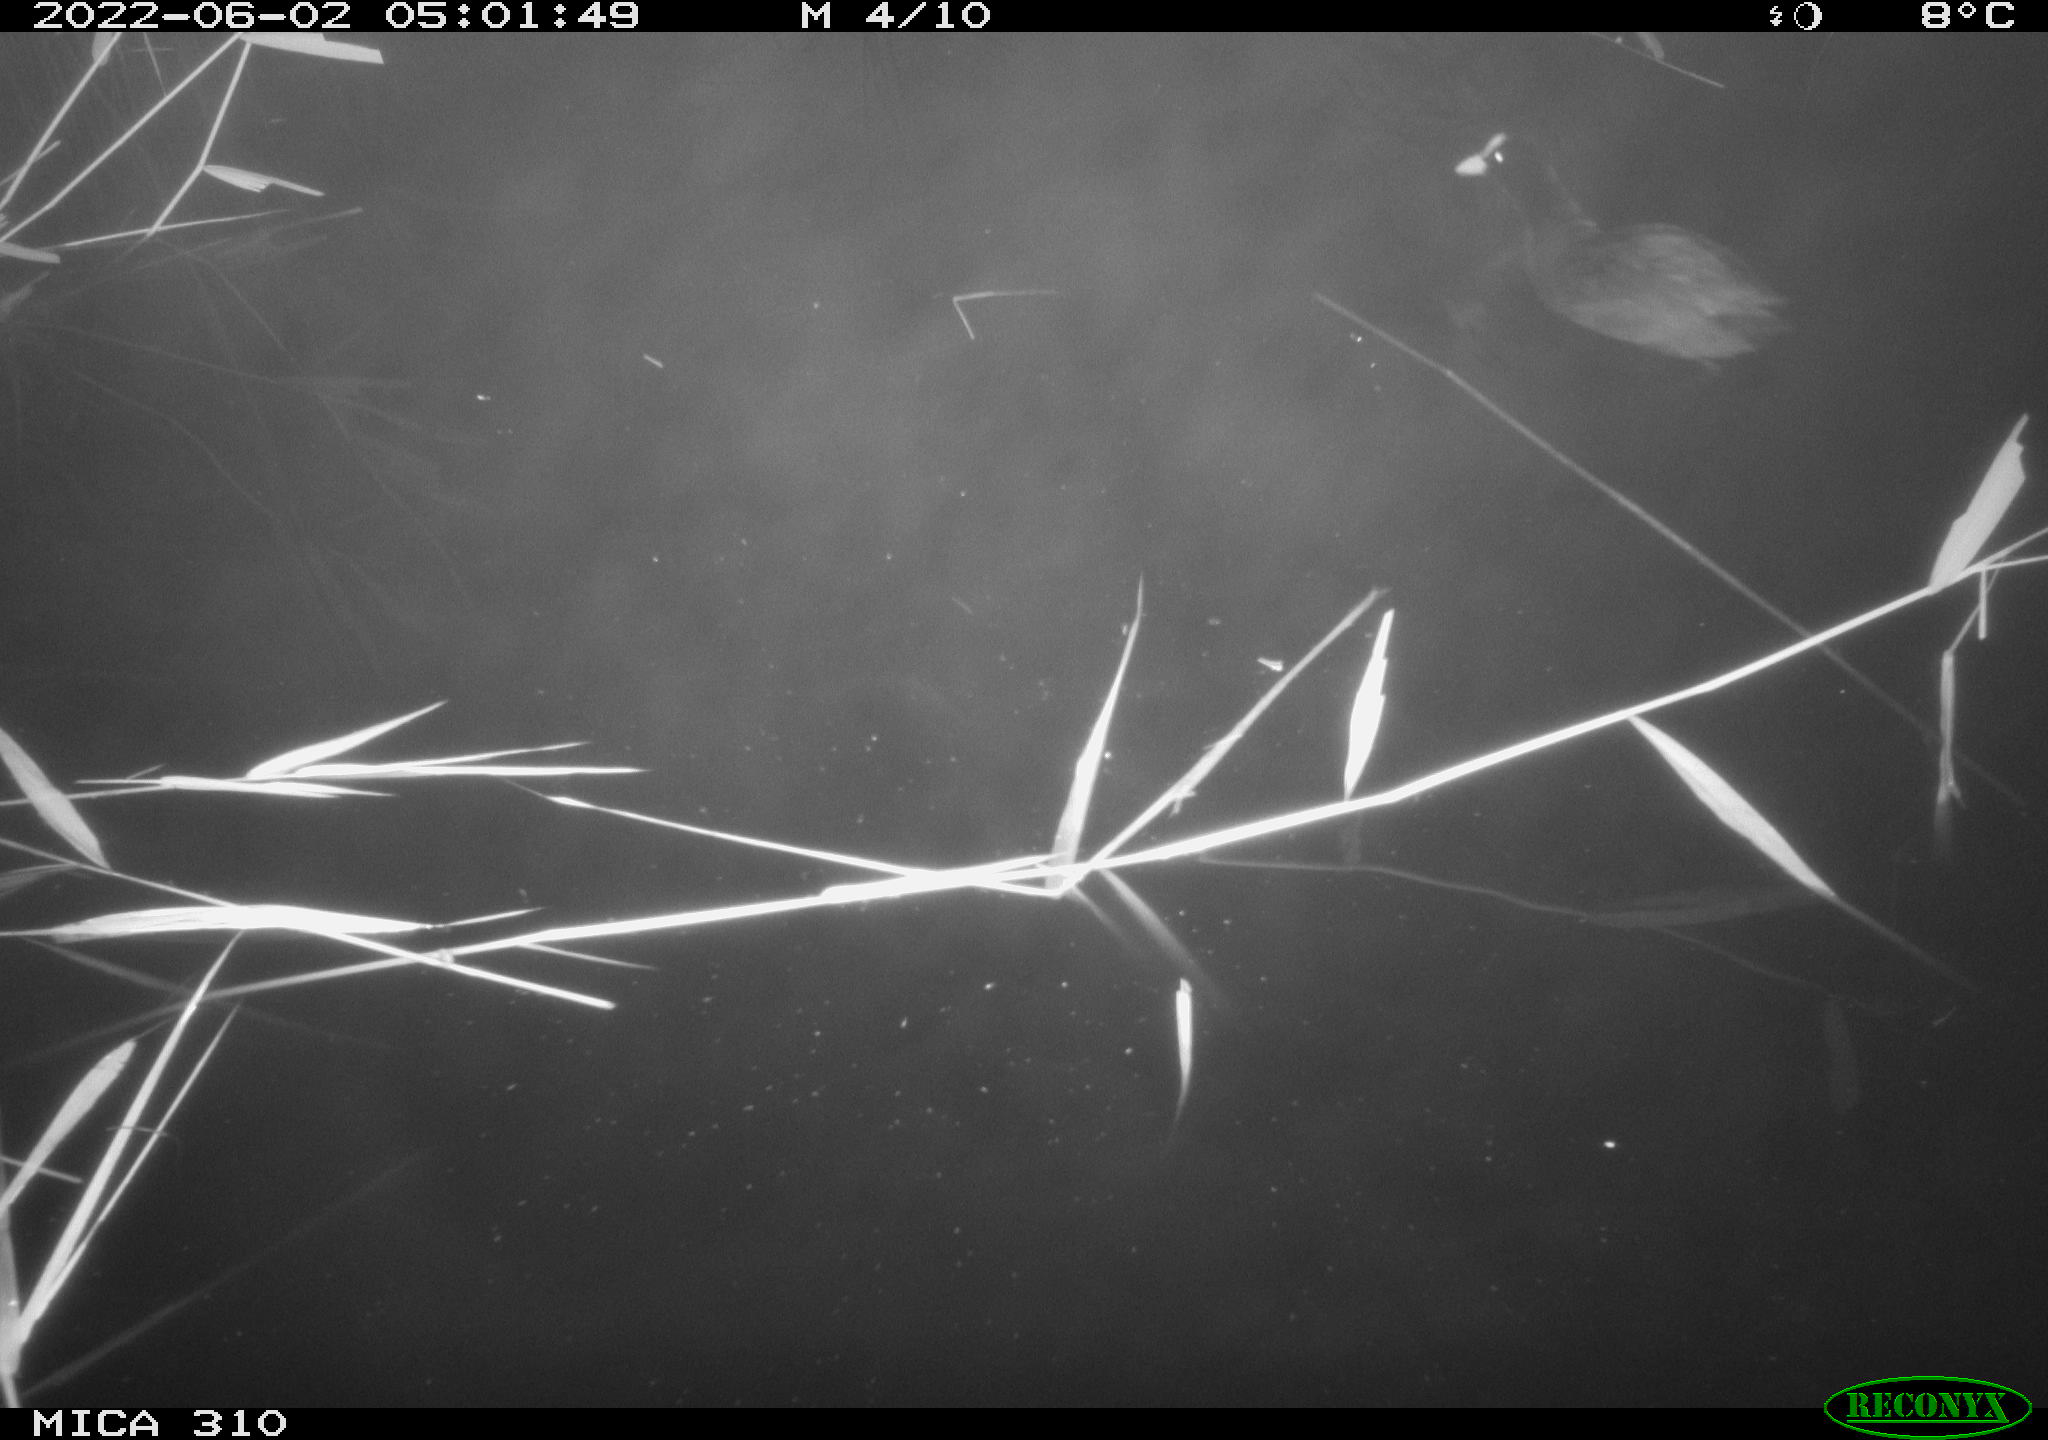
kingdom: Animalia
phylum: Chordata
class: Aves
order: Gruiformes
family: Rallidae
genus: Fulica
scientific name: Fulica atra
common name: Eurasian coot
